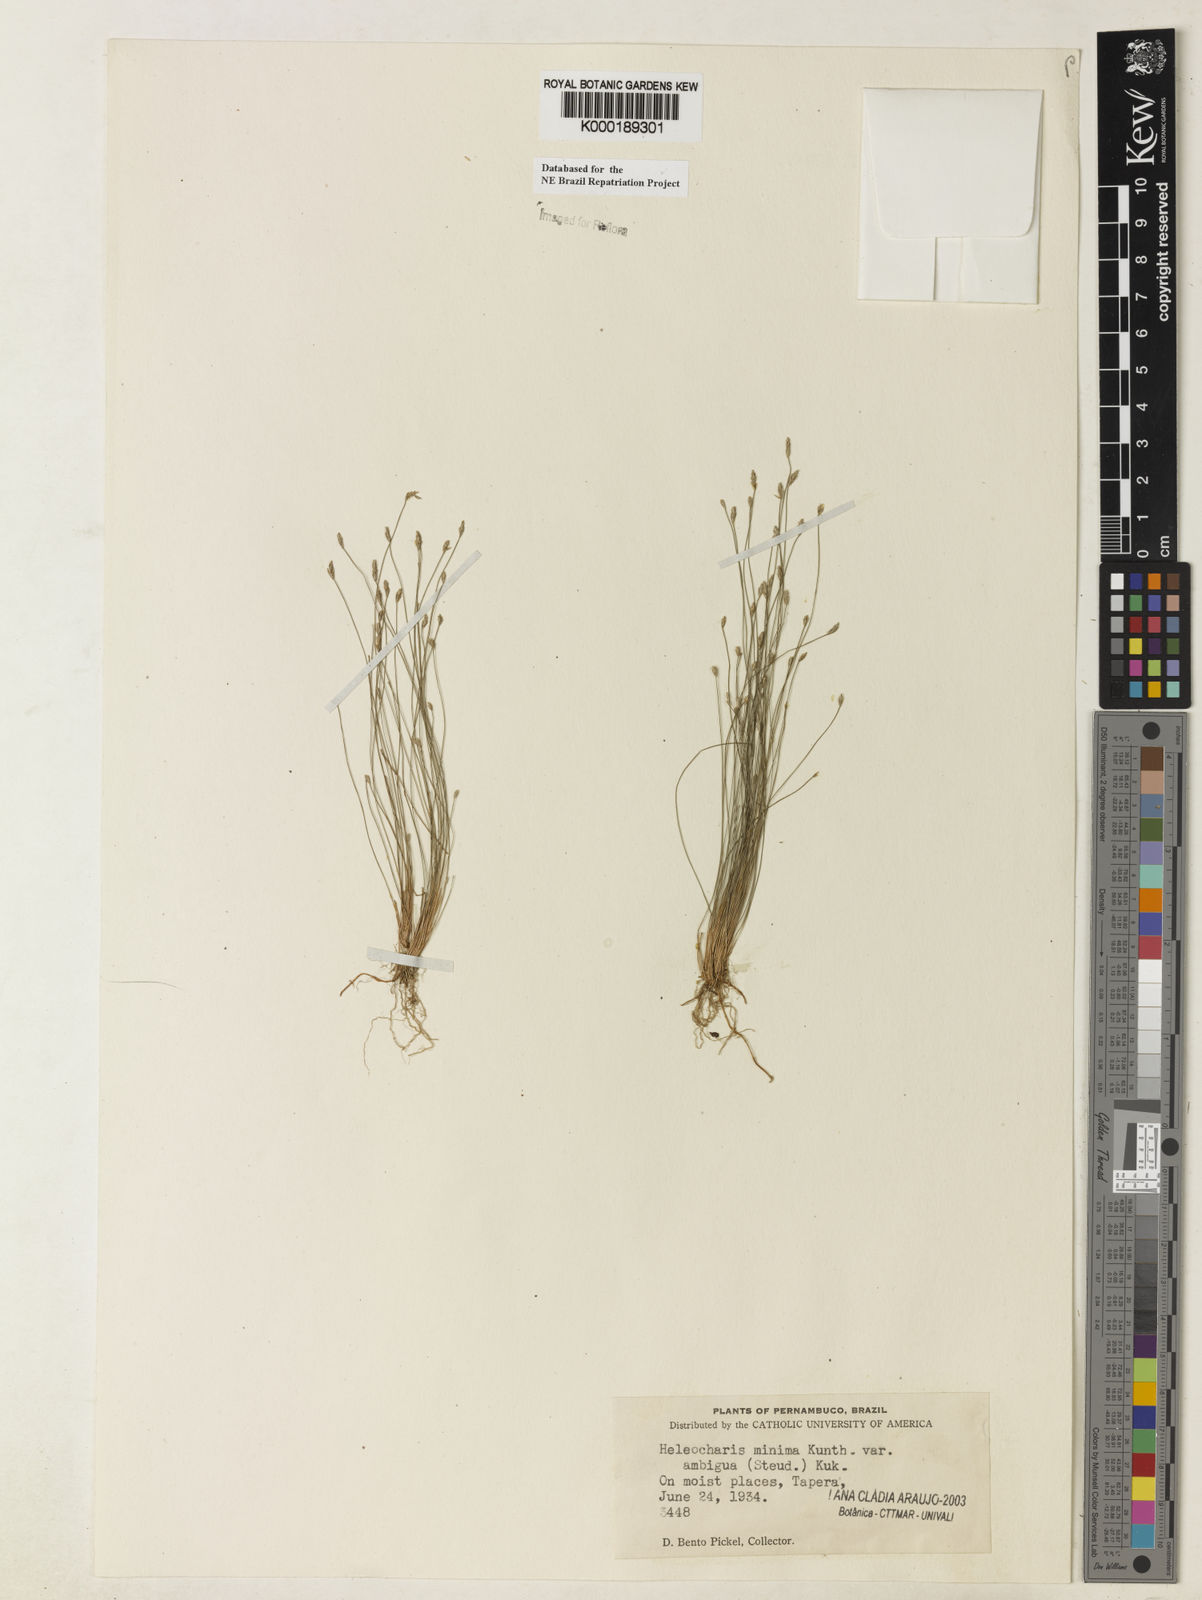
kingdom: Plantae
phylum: Tracheophyta
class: Liliopsida
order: Poales
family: Cyperaceae
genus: Eleocharis
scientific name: Eleocharis
